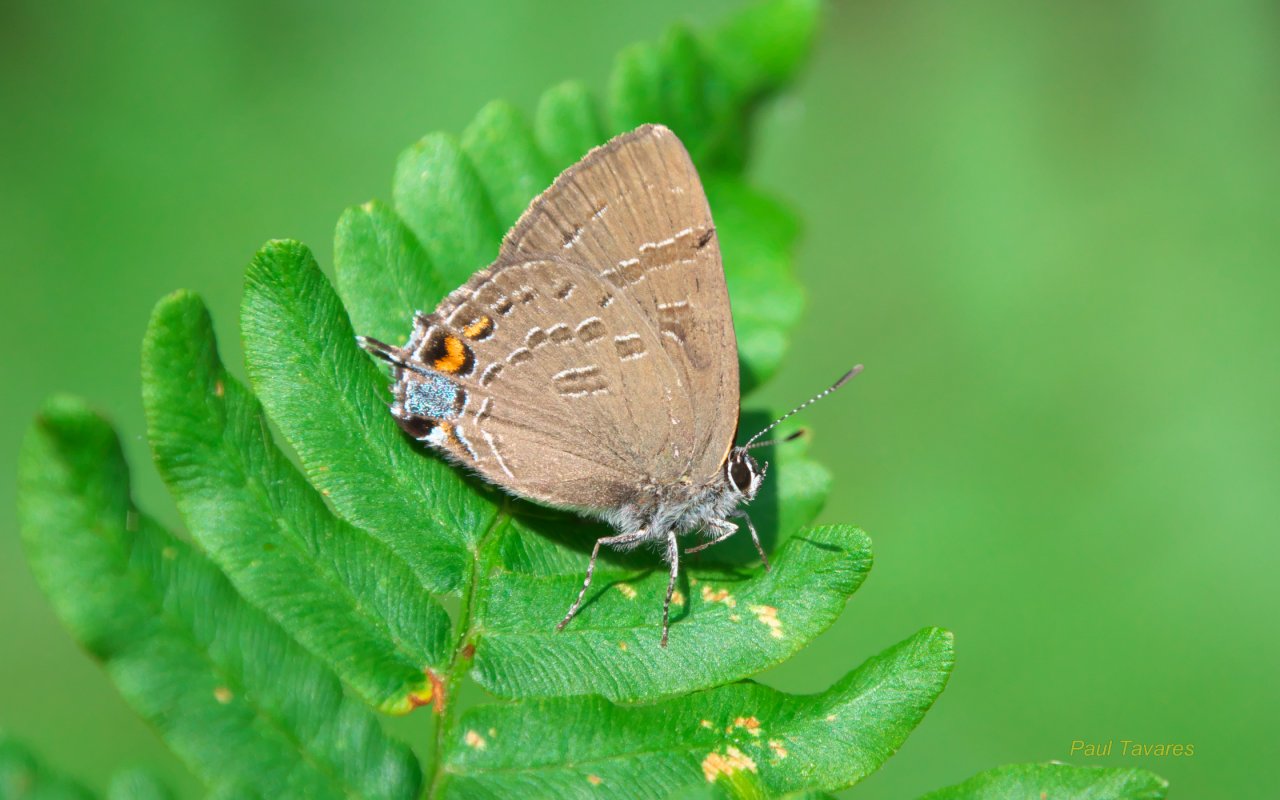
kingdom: Animalia
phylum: Arthropoda
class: Insecta
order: Lepidoptera
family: Lycaenidae
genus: Satyrium
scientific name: Satyrium calanus
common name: Banded Hairstreak
